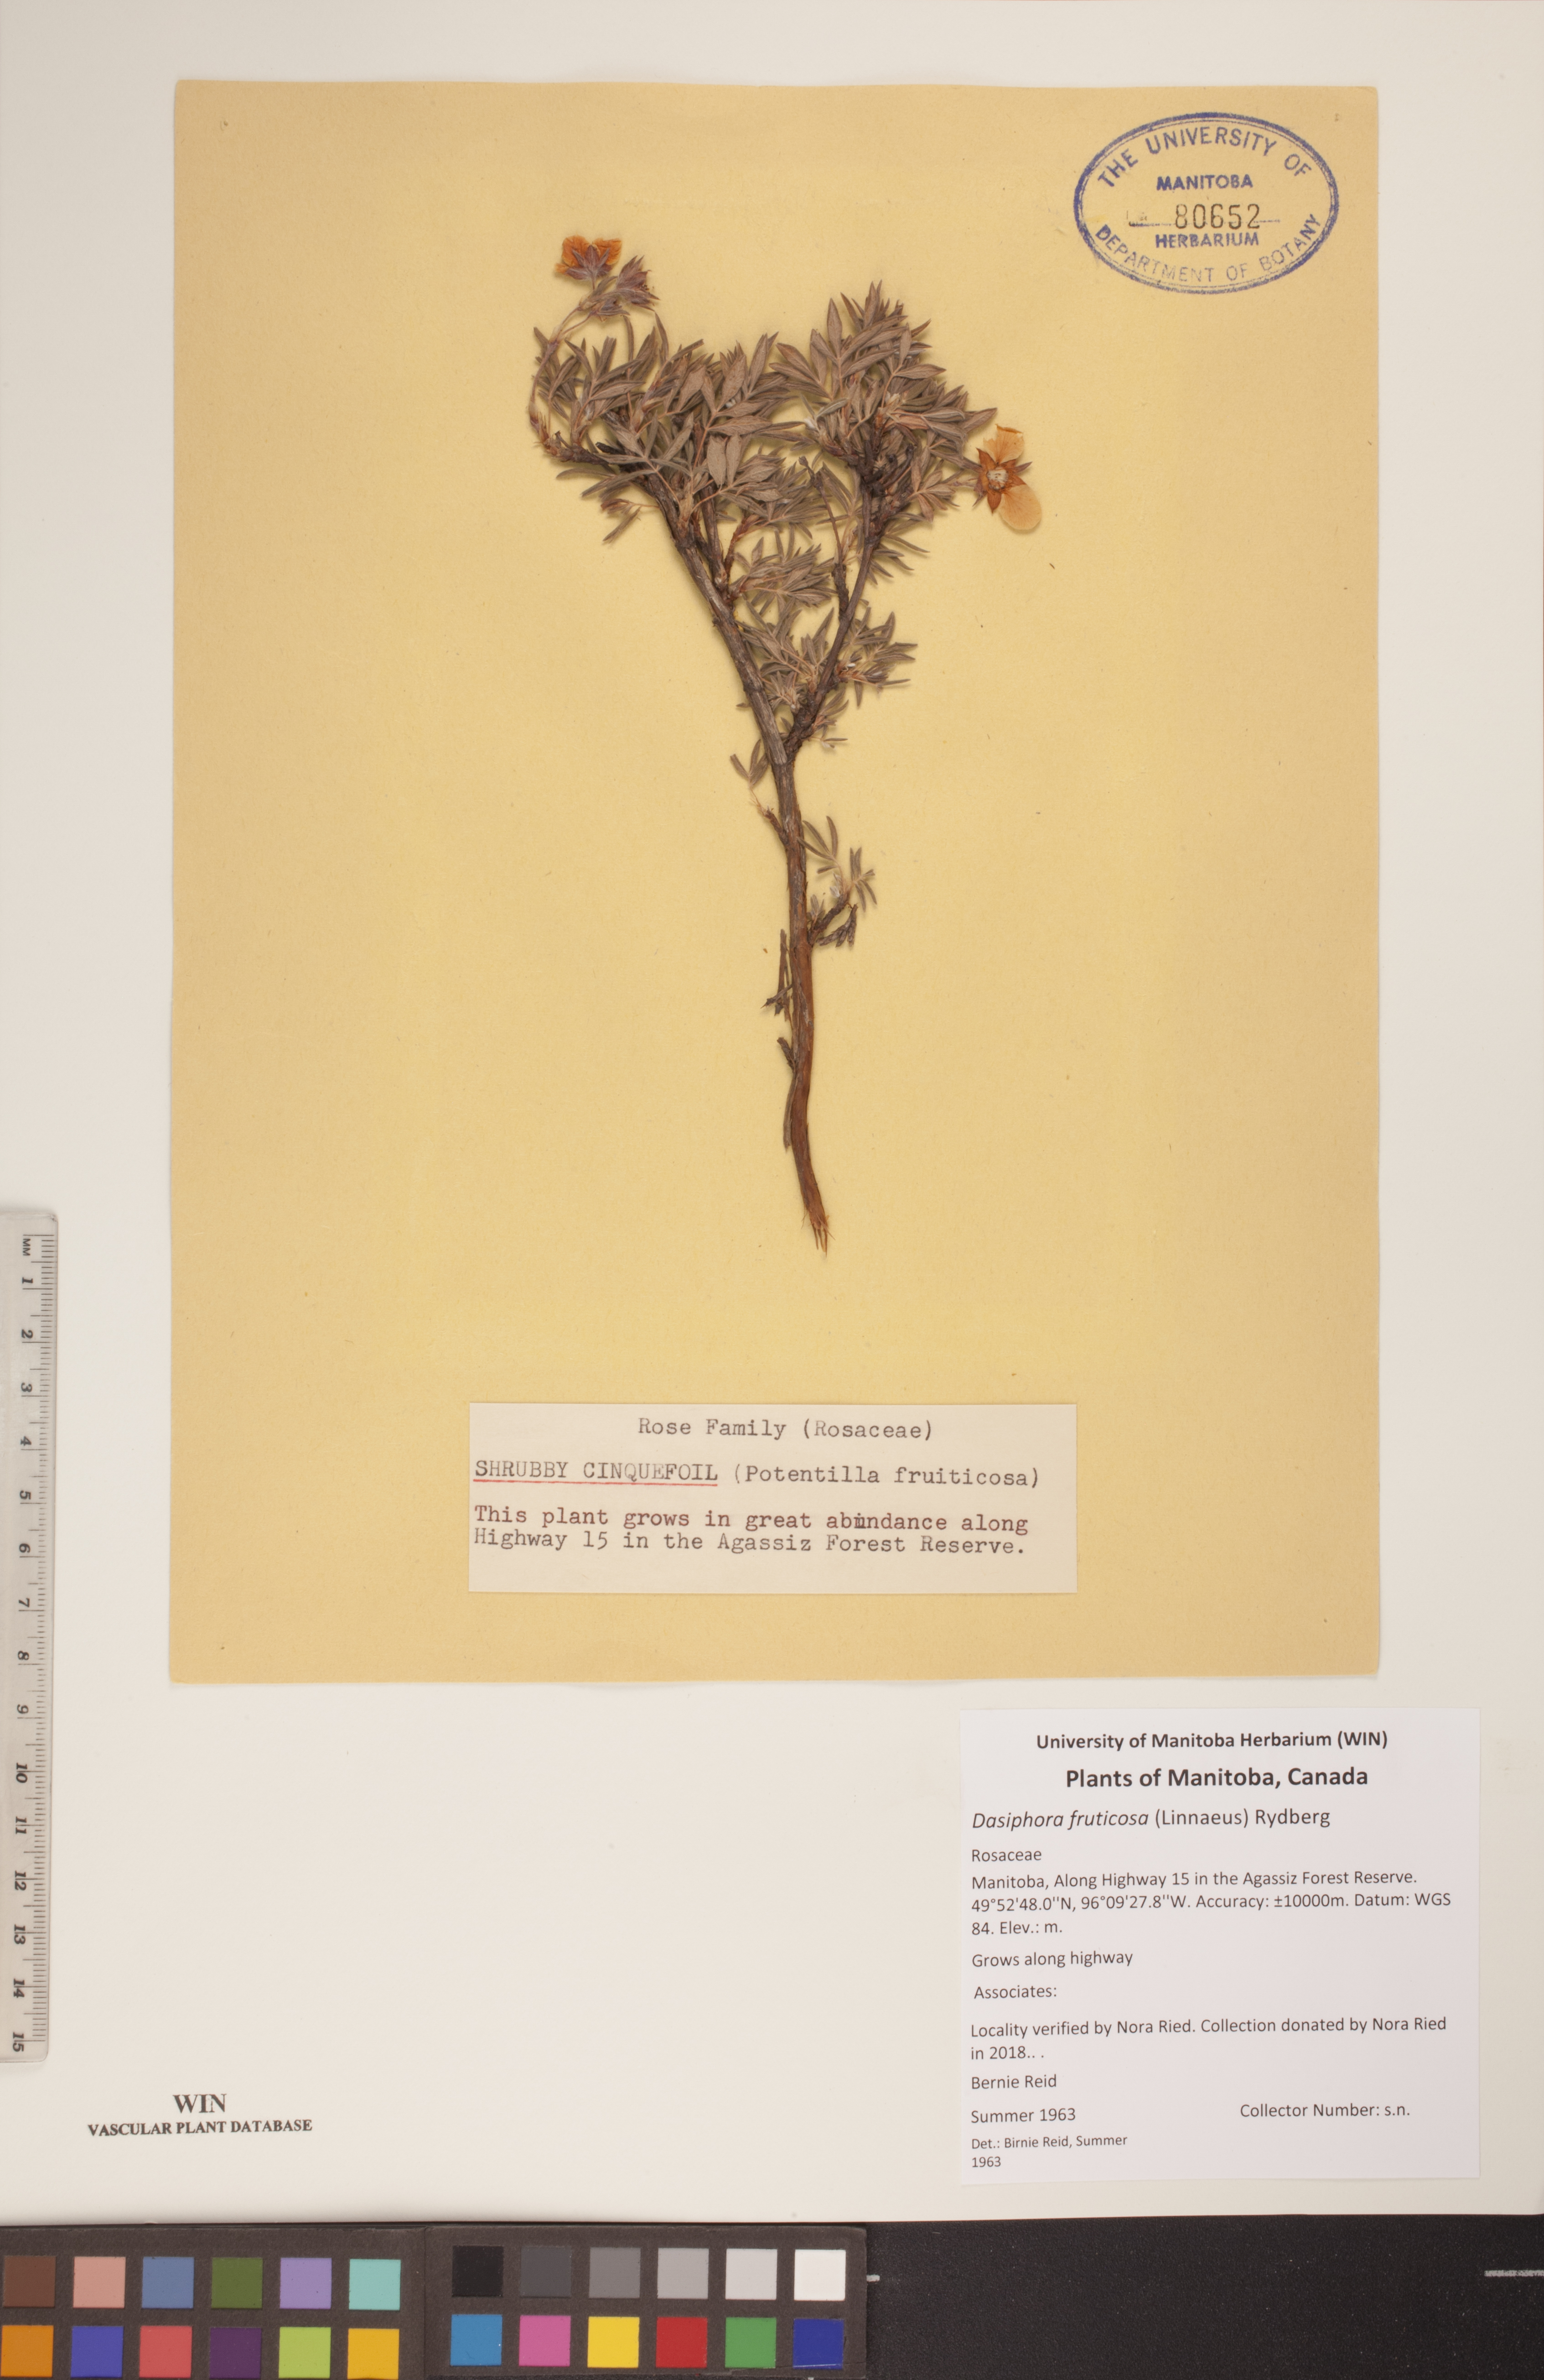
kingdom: Plantae
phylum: Tracheophyta
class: Magnoliopsida
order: Rosales
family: Rosaceae
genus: Dasiphora
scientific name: Dasiphora fruticosa
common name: Shrubby cinquefoil
